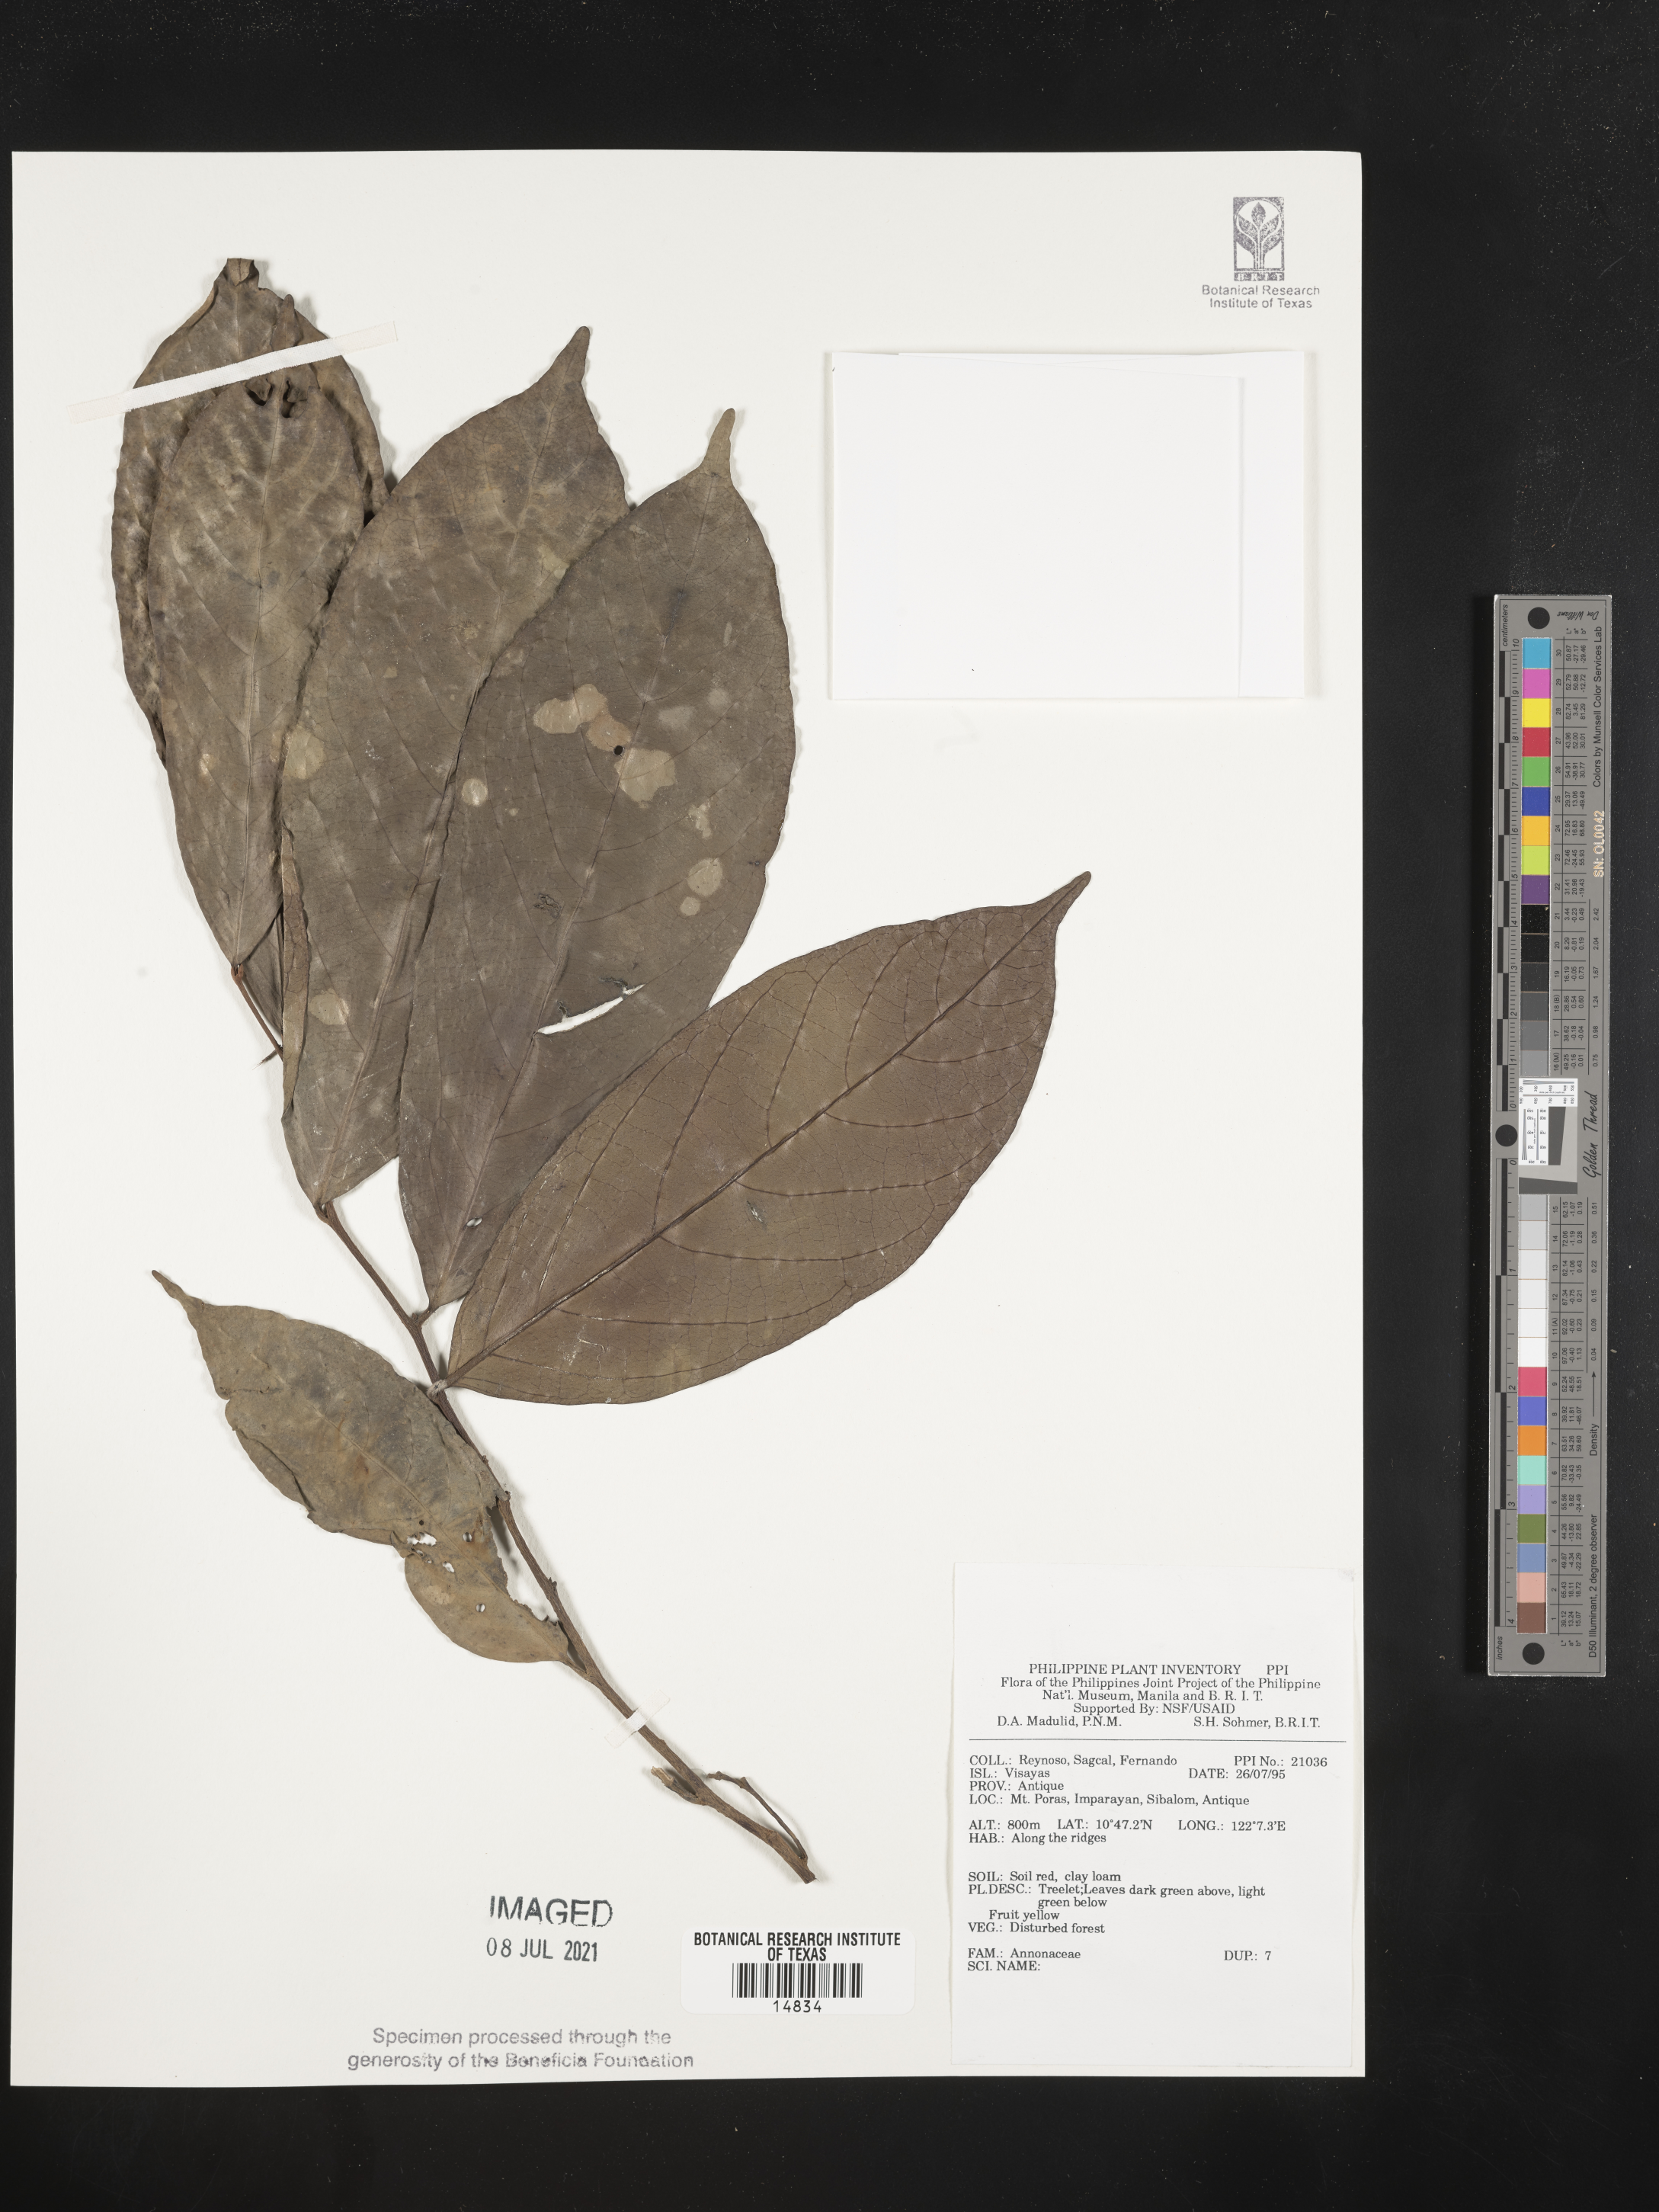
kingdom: Plantae
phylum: Tracheophyta
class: Magnoliopsida
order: Magnoliales
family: Annonaceae
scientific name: Annonaceae
